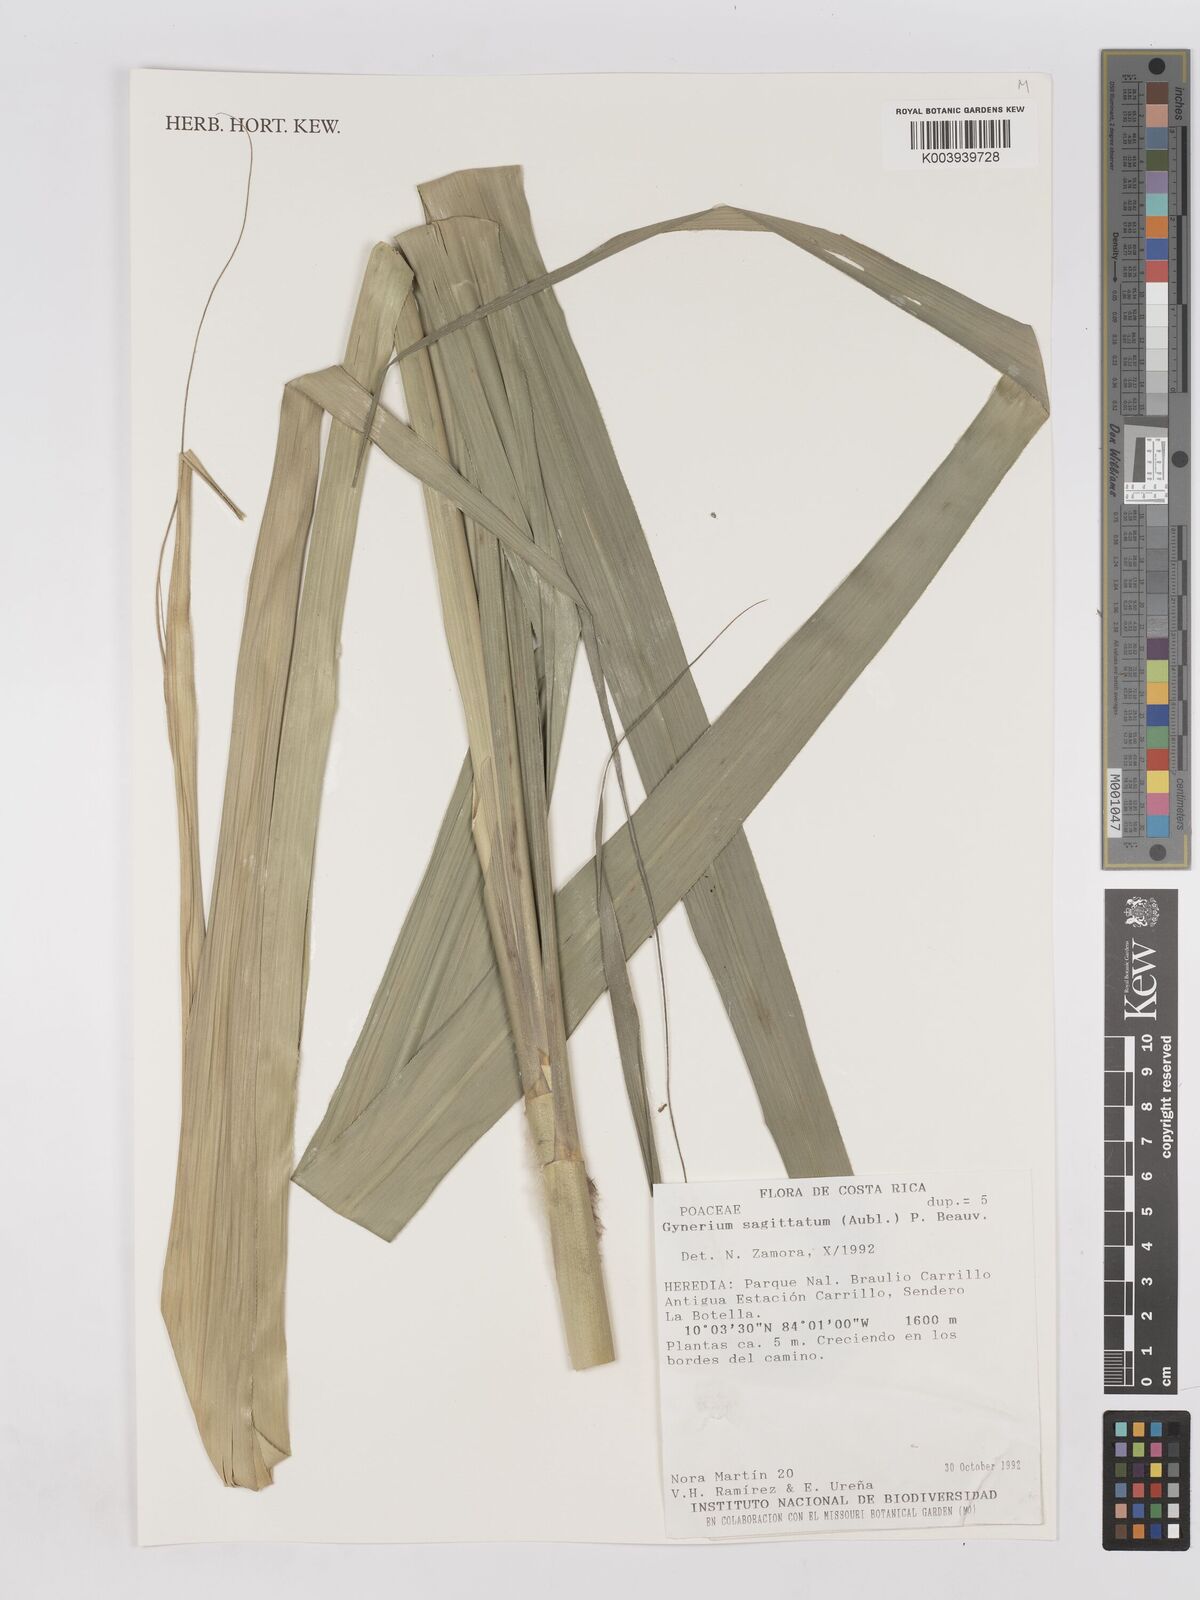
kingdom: Plantae
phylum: Tracheophyta
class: Liliopsida
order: Poales
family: Poaceae
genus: Gynerium
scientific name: Gynerium sagittatum
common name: Wild cane
